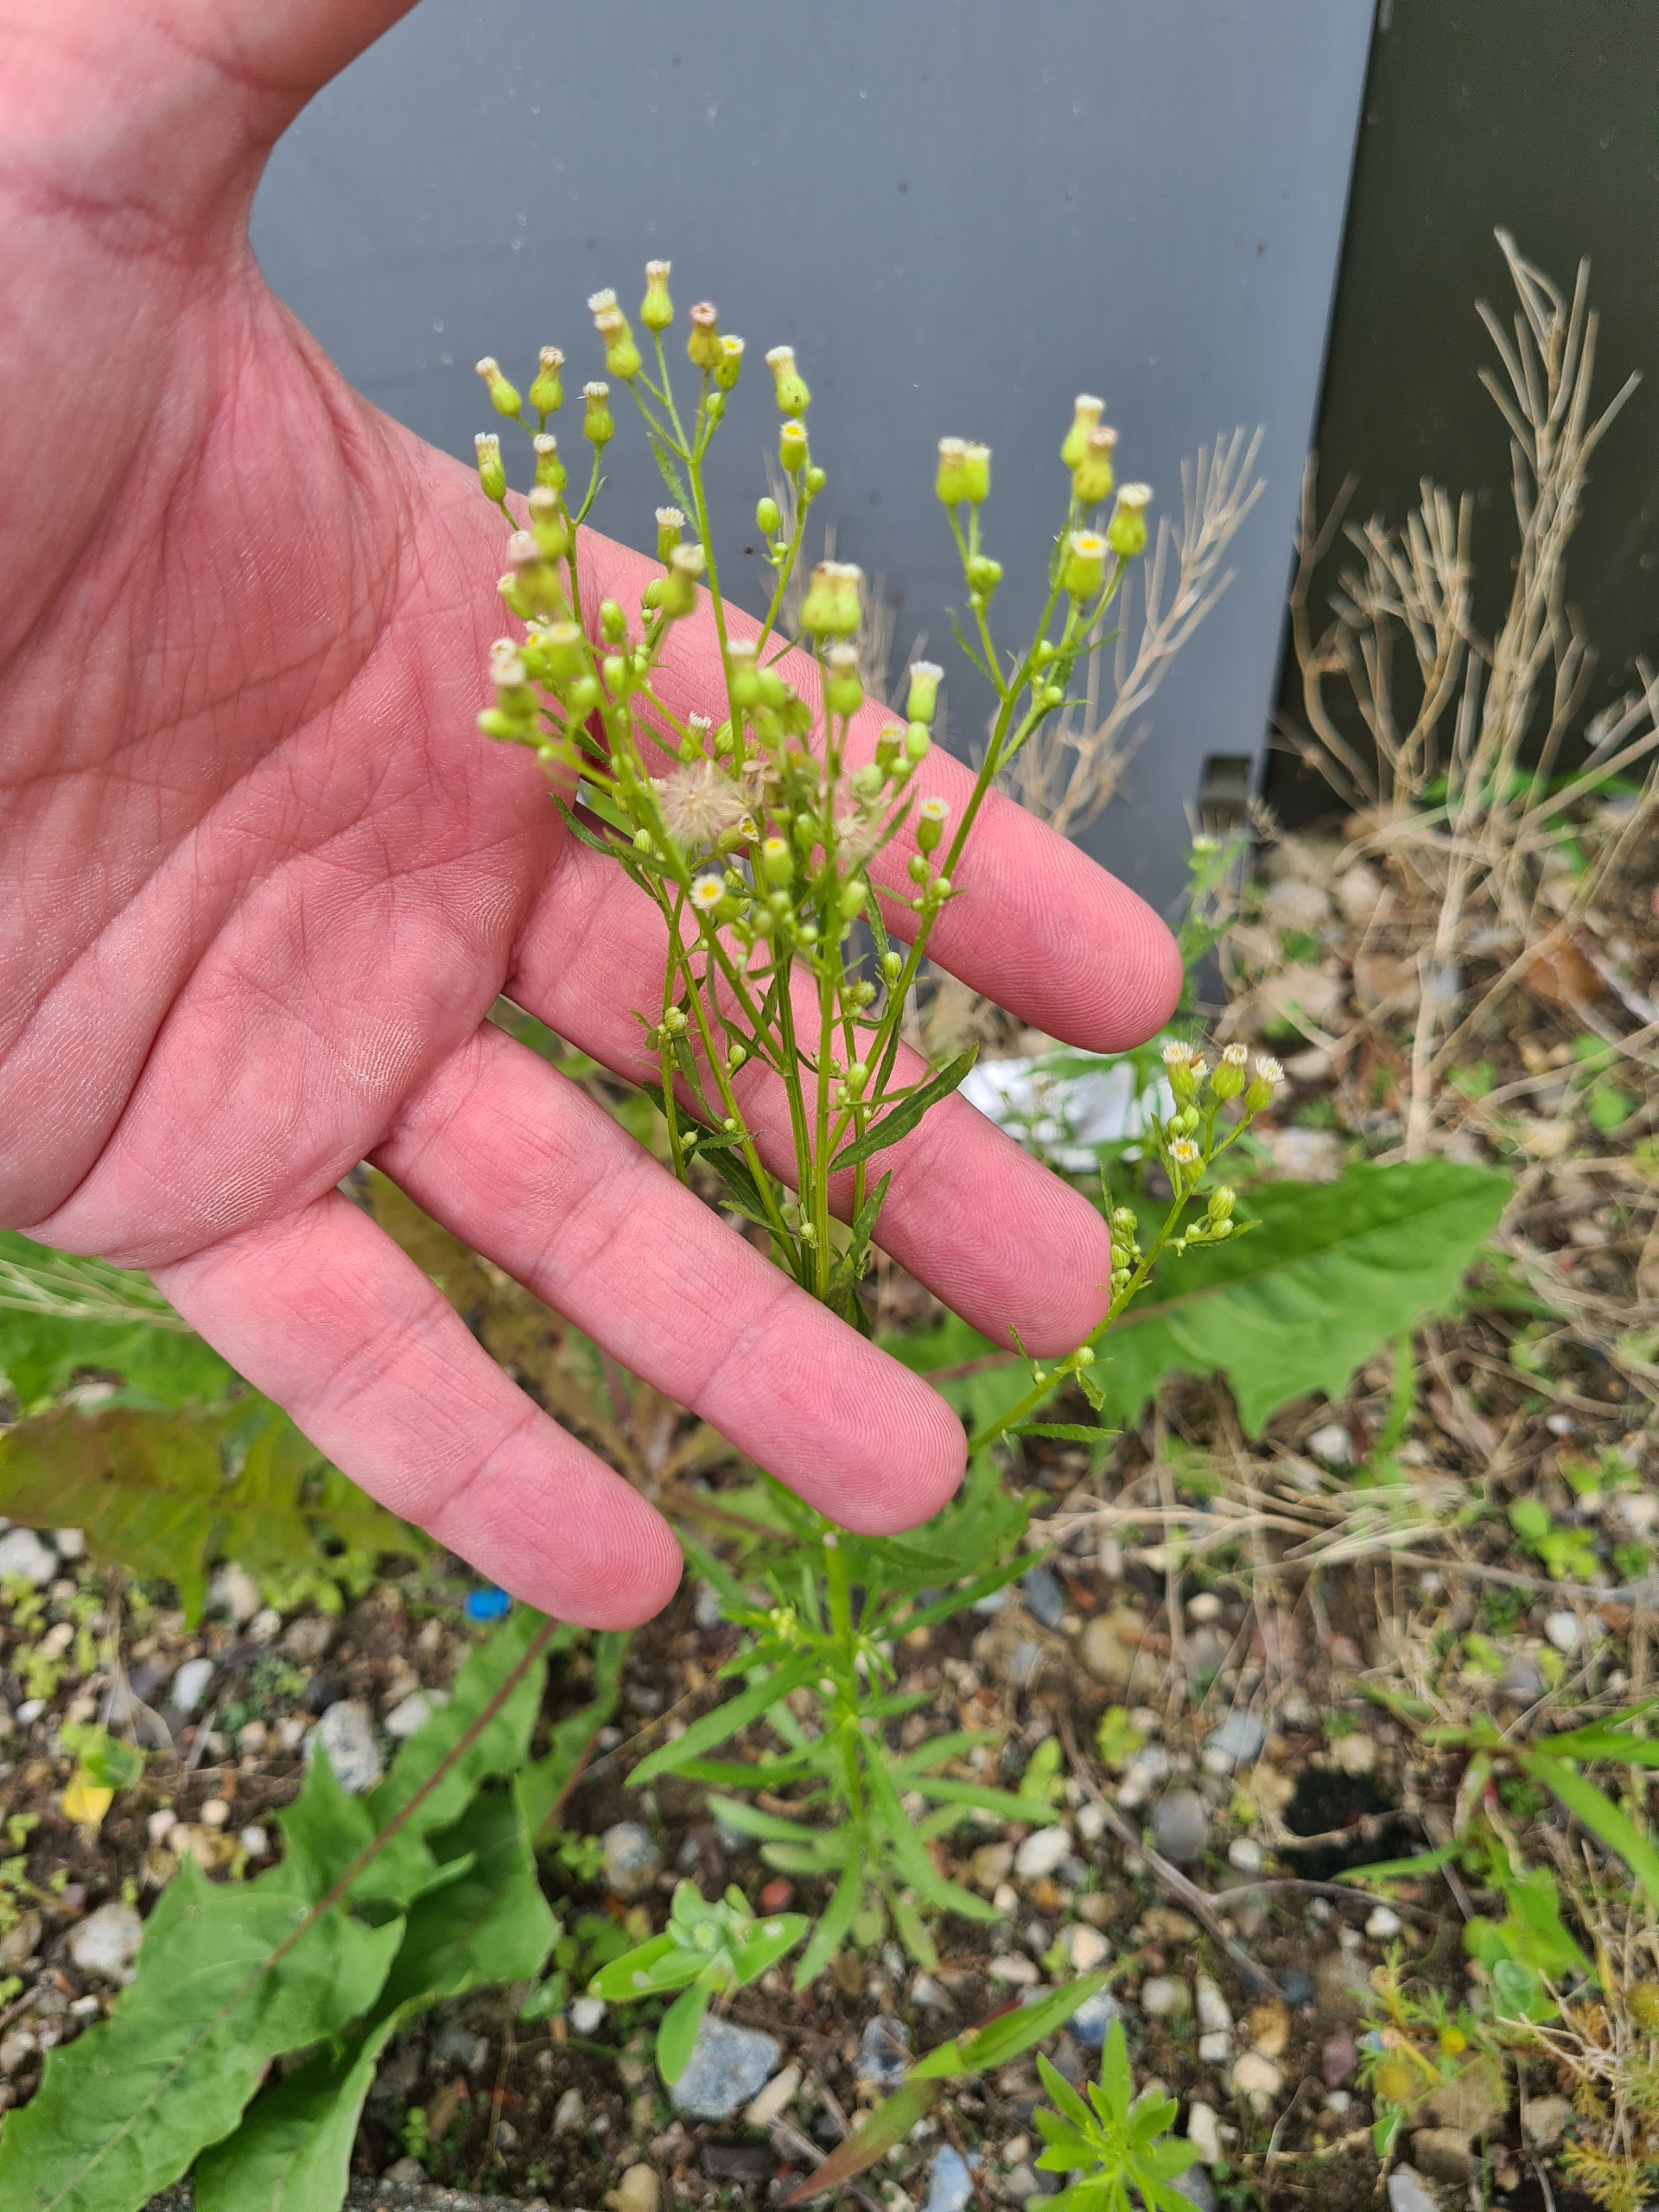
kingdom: Plantae
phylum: Tracheophyta
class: Magnoliopsida
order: Asterales
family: Asteraceae
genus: Erigeron
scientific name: Erigeron canadensis
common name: Kanadisk bakkestjerne
